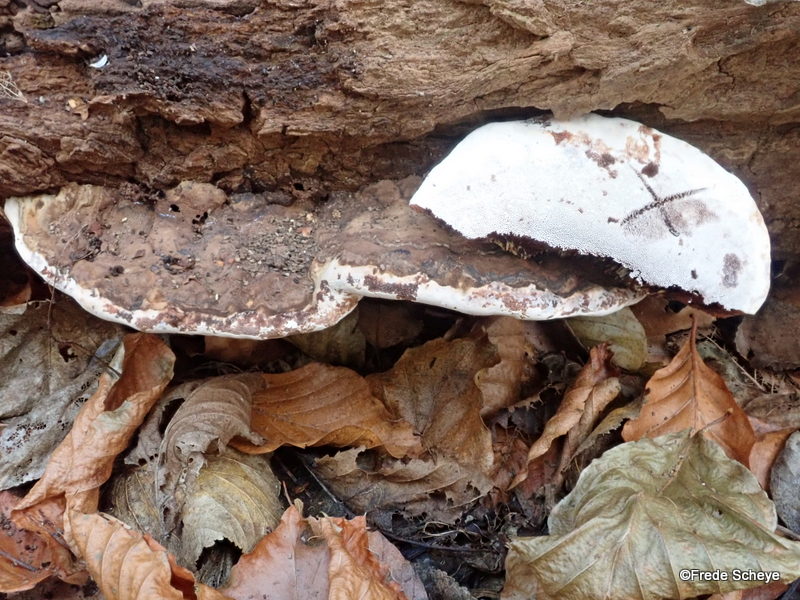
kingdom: Fungi
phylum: Basidiomycota
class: Agaricomycetes
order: Polyporales
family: Polyporaceae
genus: Ganoderma
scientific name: Ganoderma applanatum
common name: flad lakporesvamp
